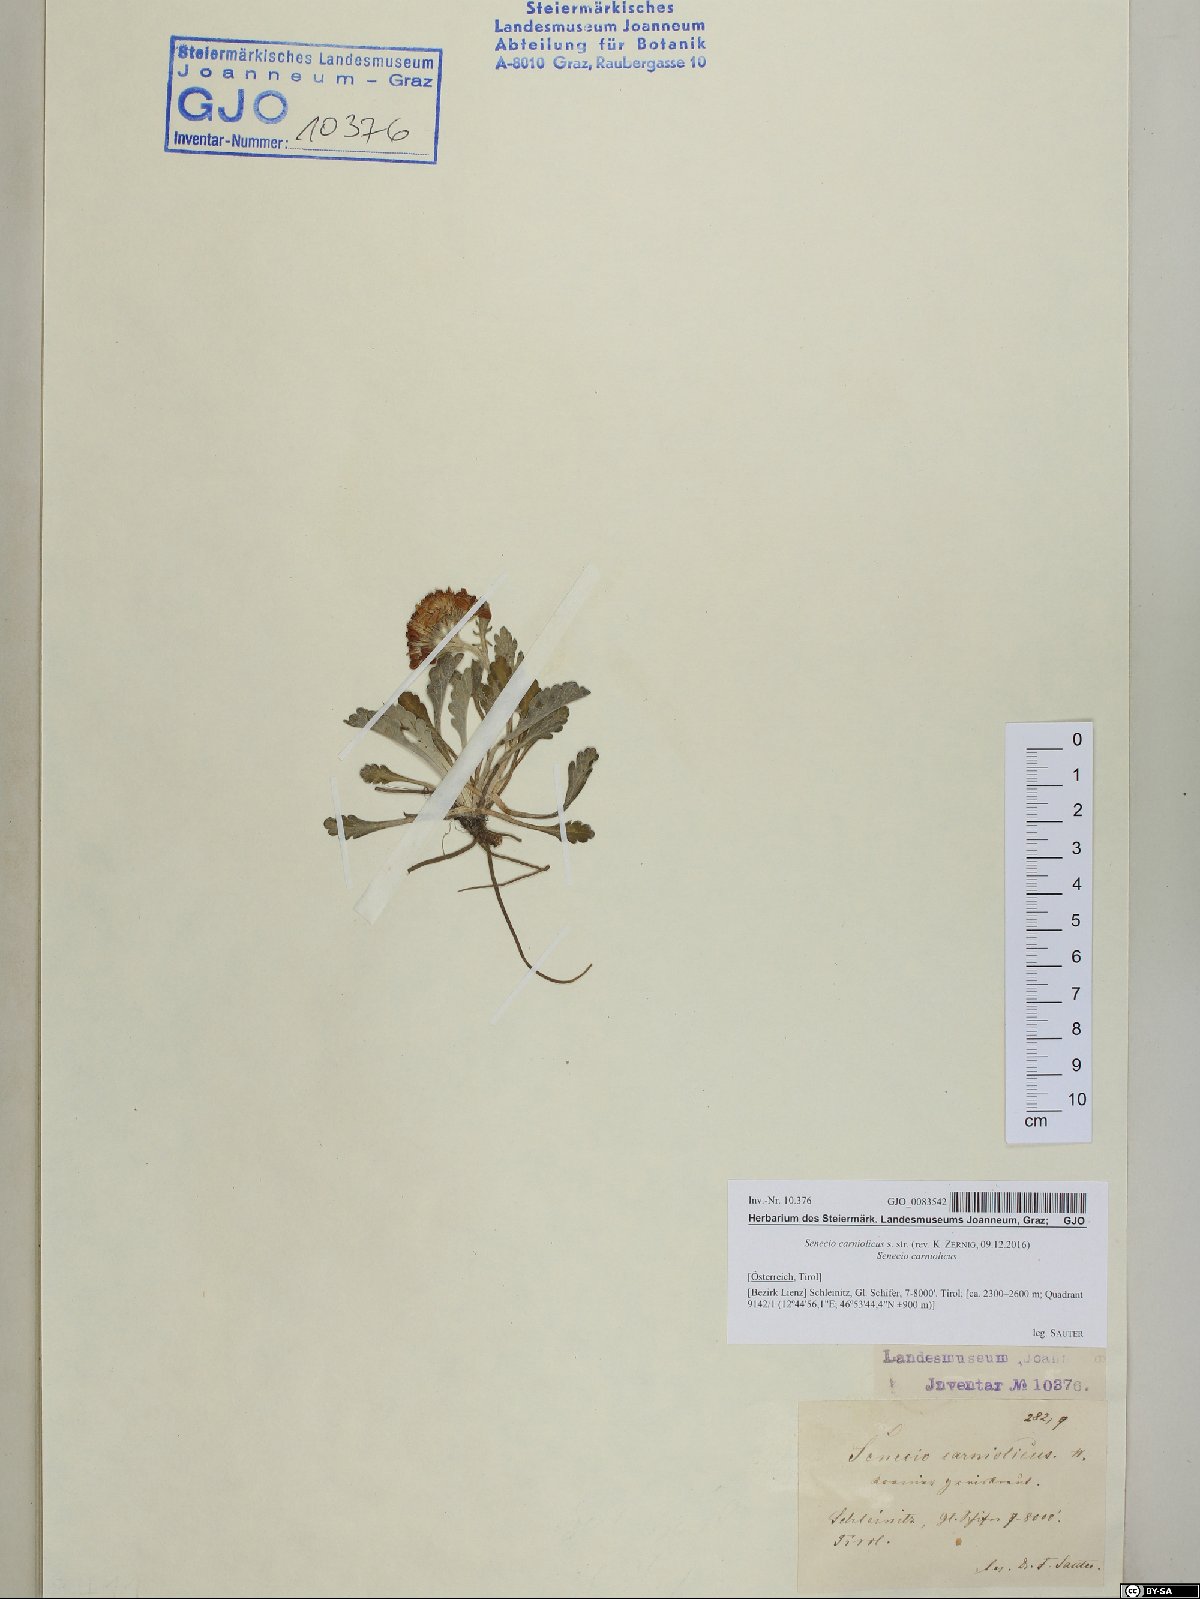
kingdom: Plantae
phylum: Tracheophyta
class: Magnoliopsida
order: Asterales
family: Asteraceae
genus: Jacobaea
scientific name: Jacobaea carniolica
